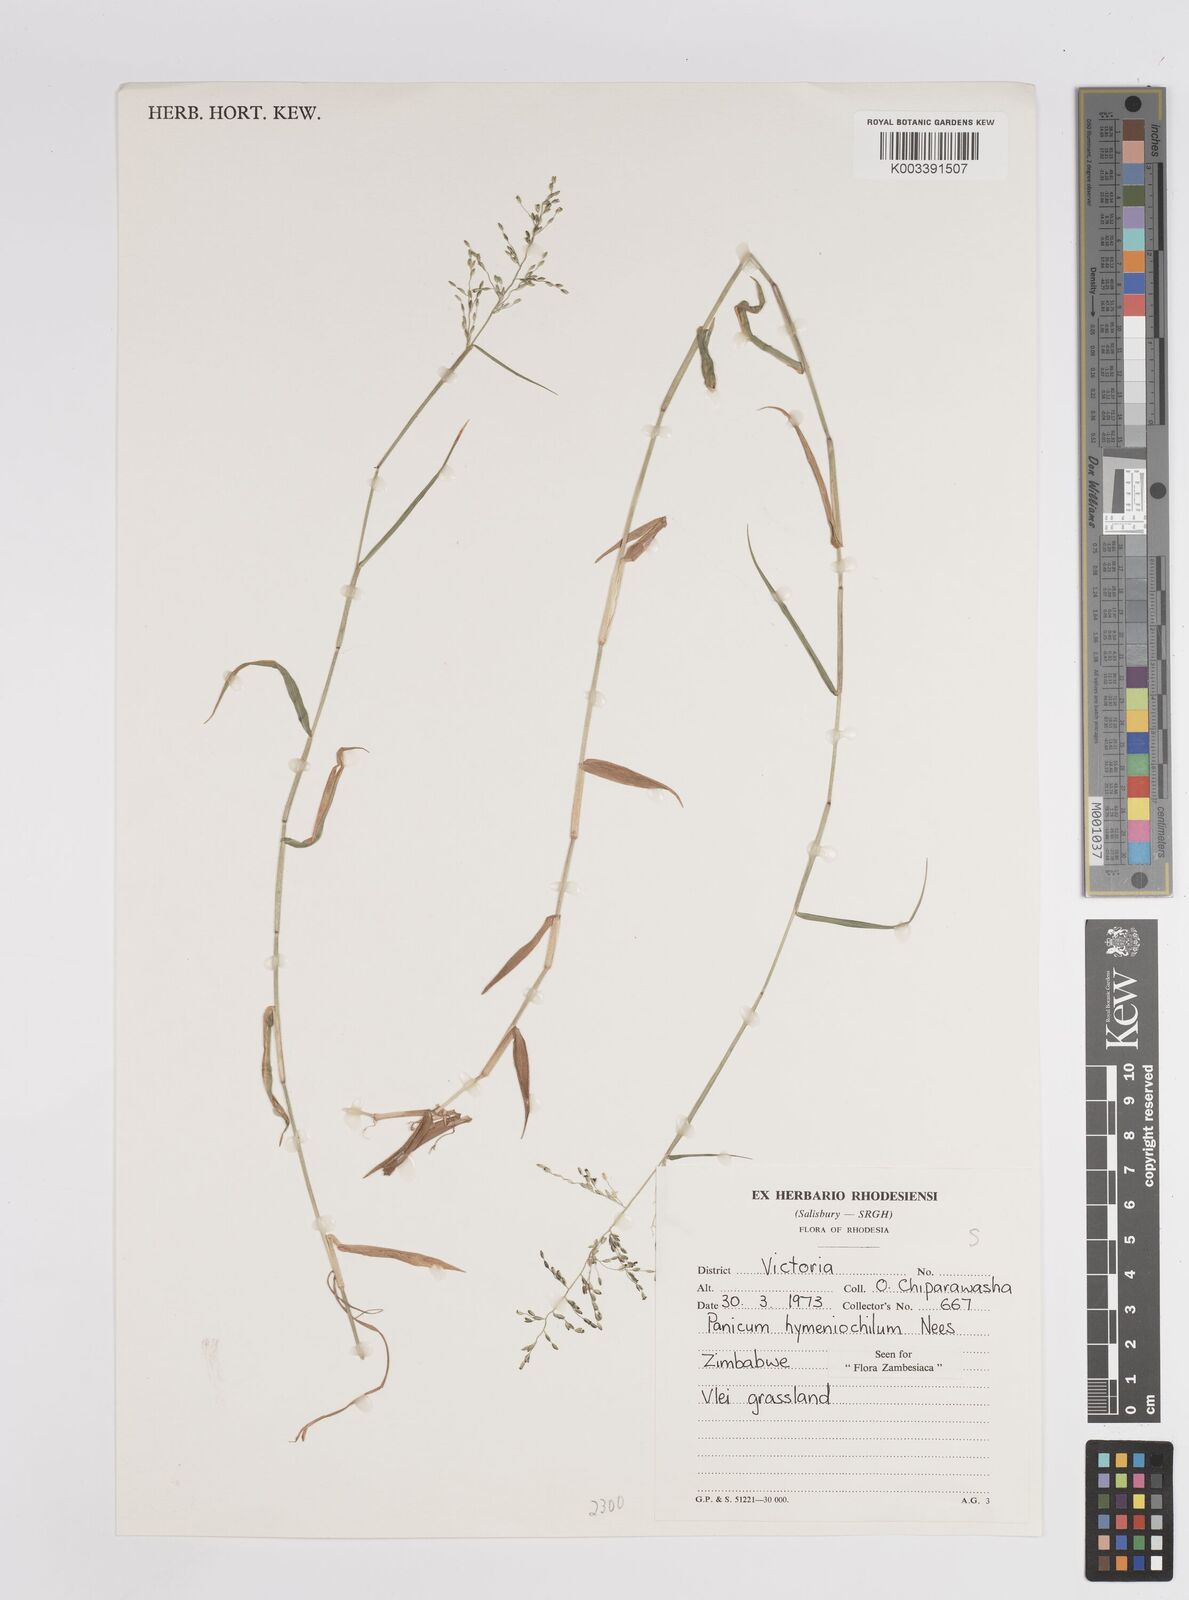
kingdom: Plantae
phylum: Tracheophyta
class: Liliopsida
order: Poales
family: Poaceae
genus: Adenochloa
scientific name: Adenochloa hymeniochila
